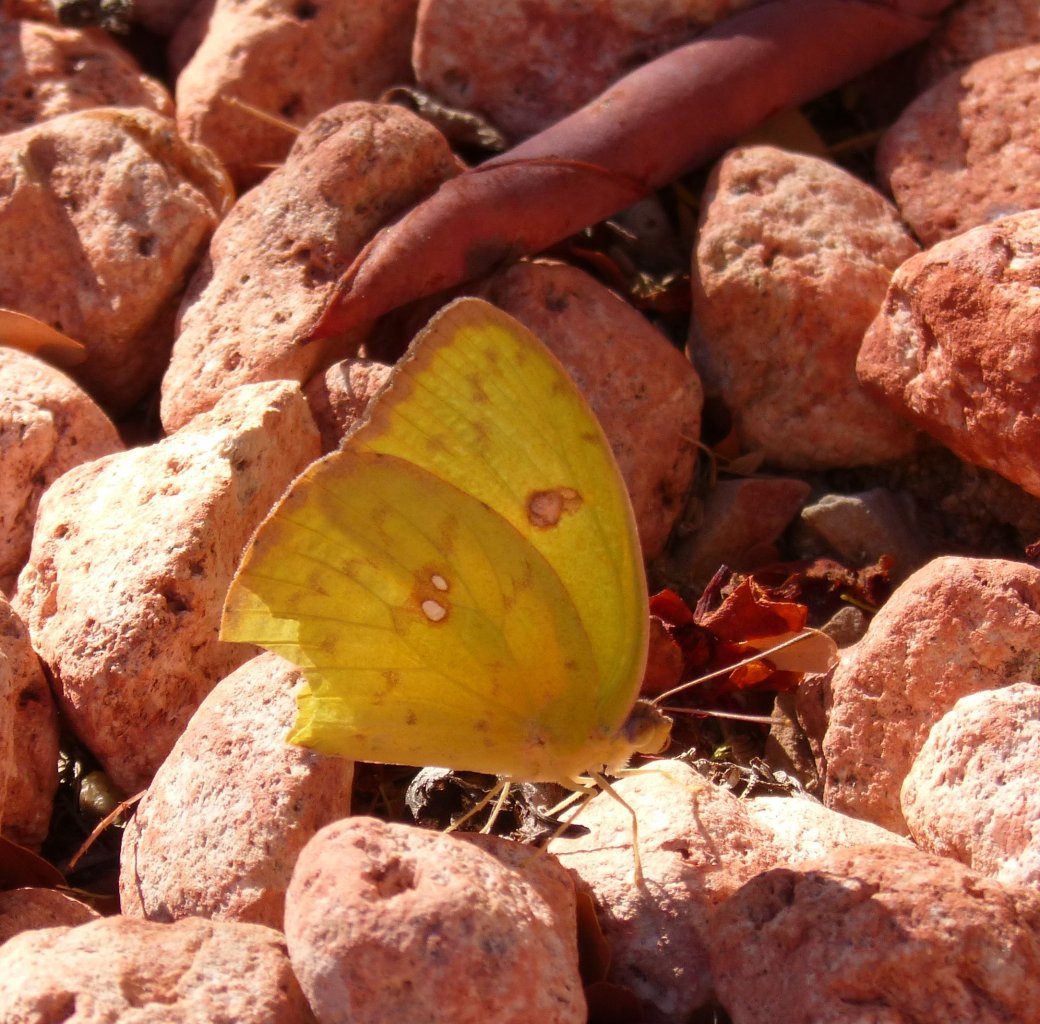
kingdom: Animalia
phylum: Arthropoda
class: Insecta
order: Lepidoptera
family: Pieridae
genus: Phoebis
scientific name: Phoebis sennae
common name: Cloudless Sulphur
